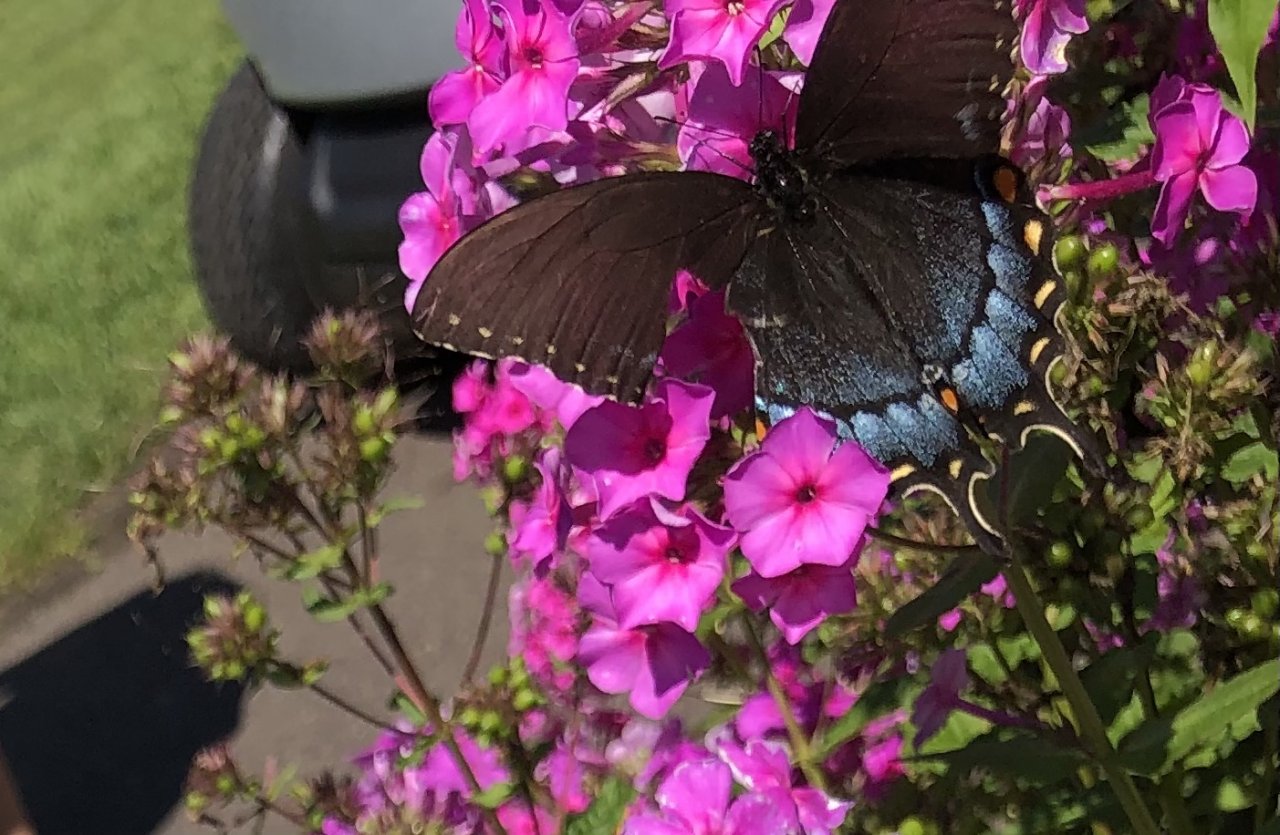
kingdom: Animalia
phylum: Arthropoda
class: Insecta
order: Lepidoptera
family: Papilionidae
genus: Pterourus
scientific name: Pterourus glaucus
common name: Eastern Tiger Swallowtail
